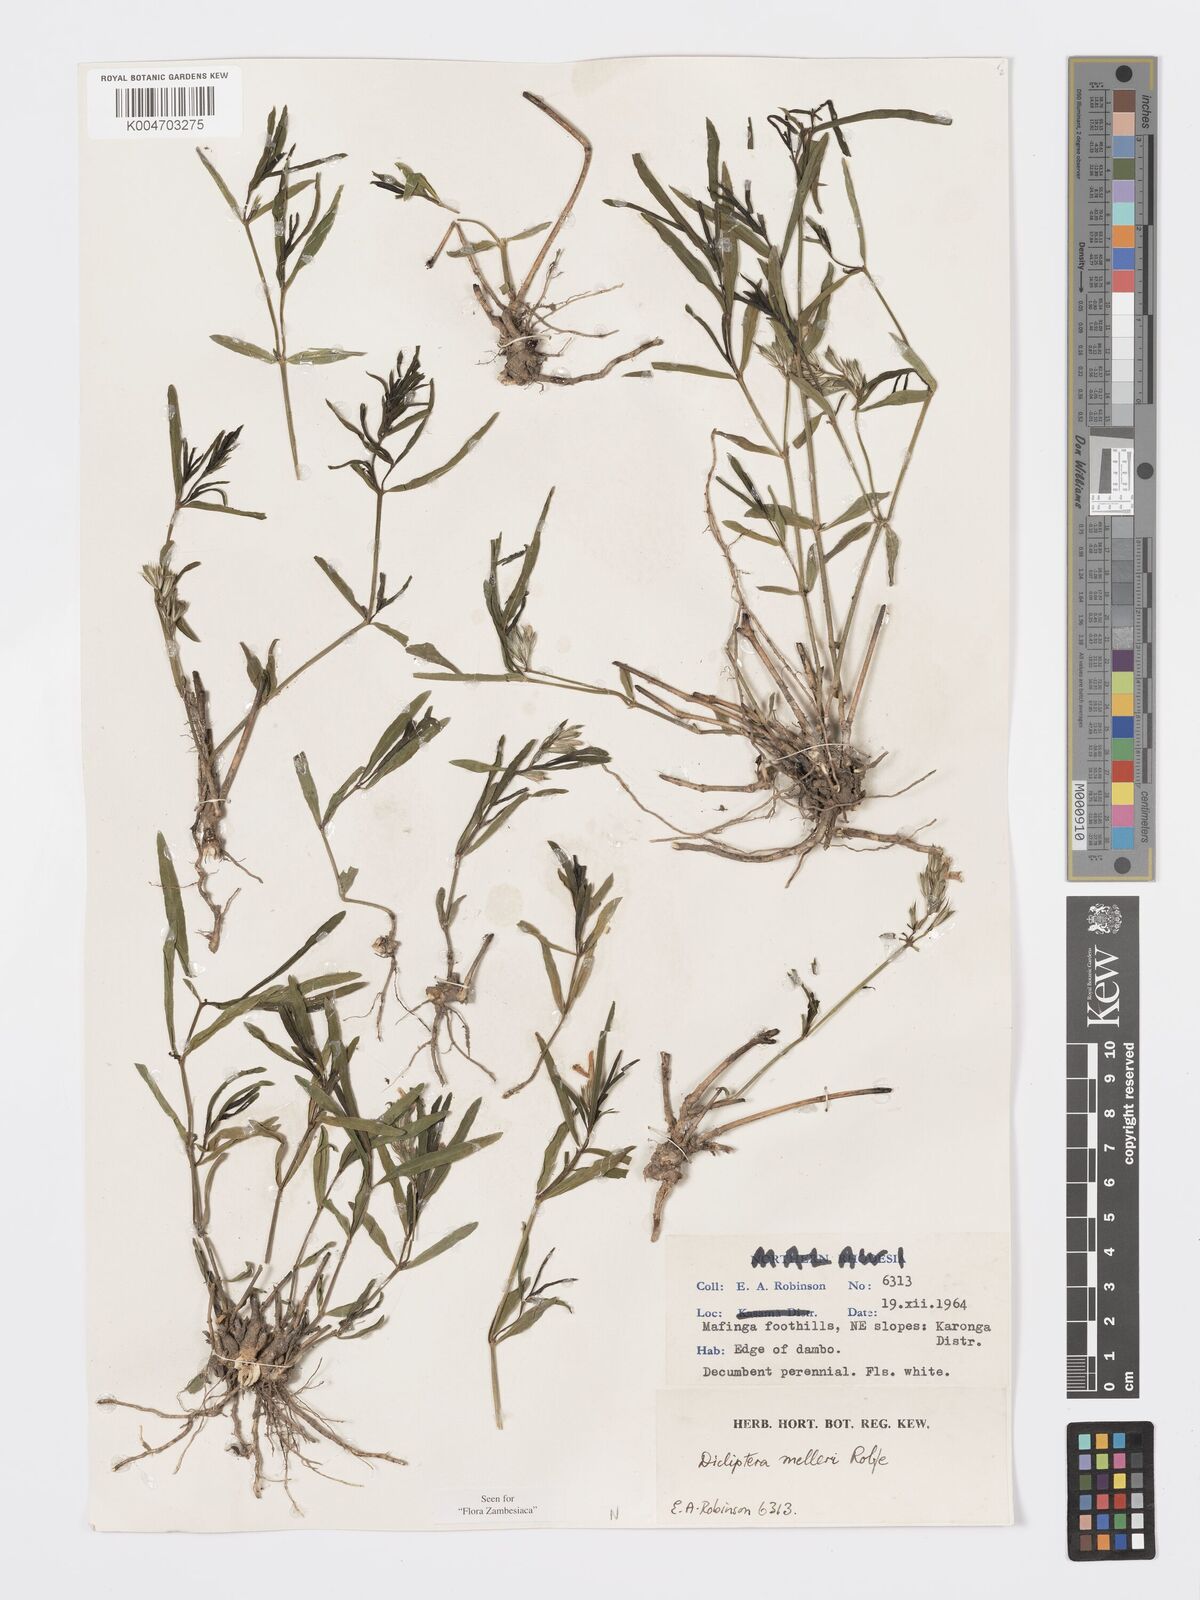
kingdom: Plantae
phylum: Tracheophyta
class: Magnoliopsida
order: Lamiales
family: Acanthaceae
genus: Dicliptera
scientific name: Dicliptera melleri
